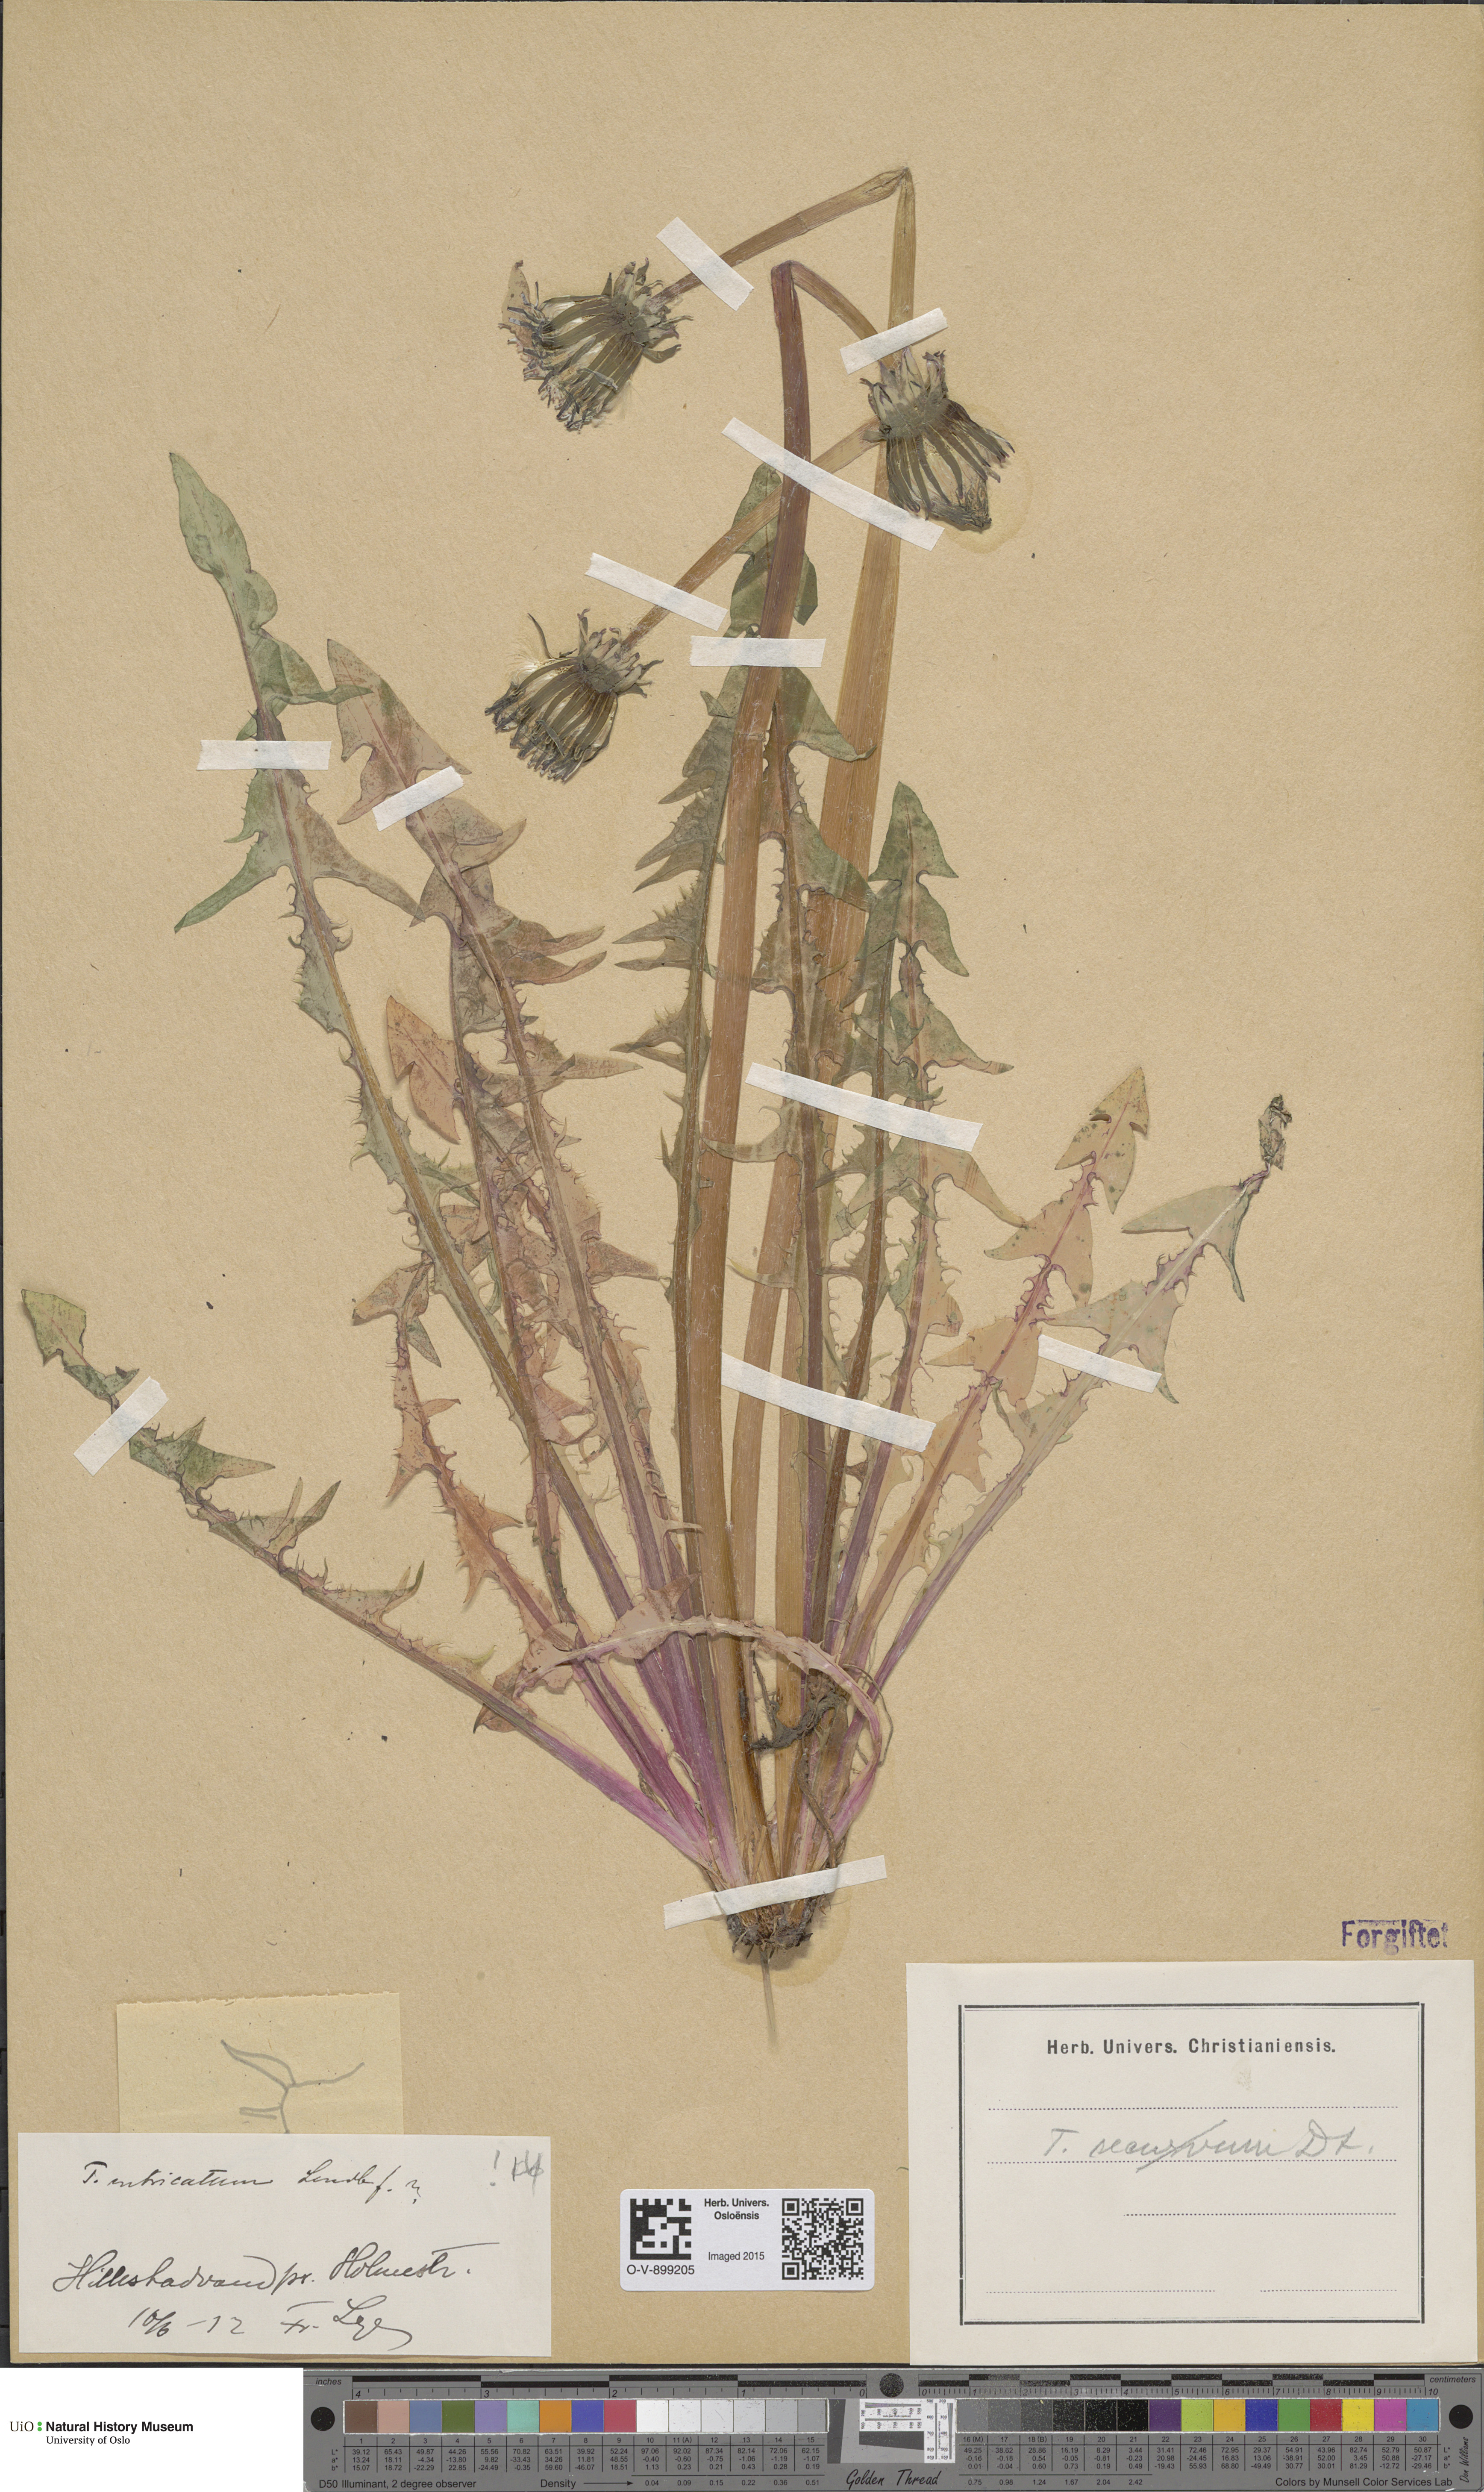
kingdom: Plantae
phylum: Tracheophyta
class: Magnoliopsida
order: Asterales
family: Asteraceae
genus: Taraxacum
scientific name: Taraxacum recurvum
